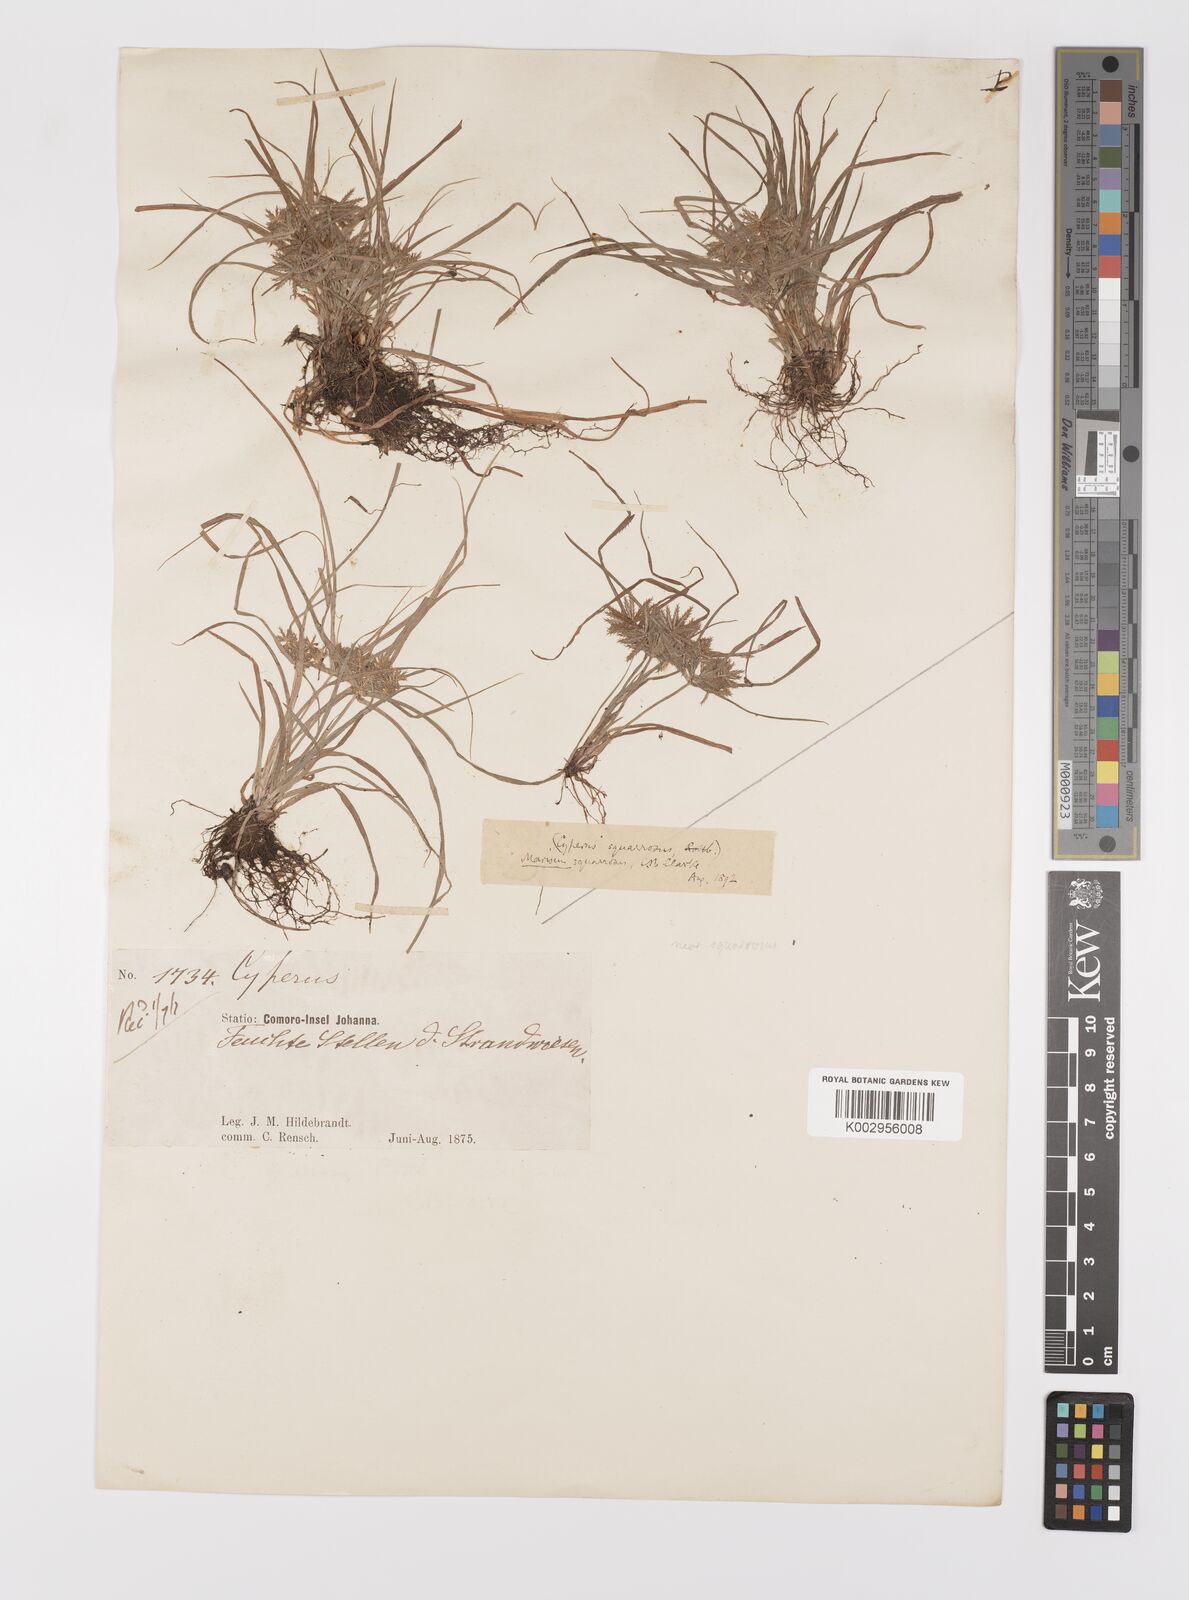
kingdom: Plantae
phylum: Tracheophyta
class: Liliopsida
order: Poales
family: Cyperaceae
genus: Cyperus
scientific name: Cyperus squarrosus
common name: Awned cyperus
